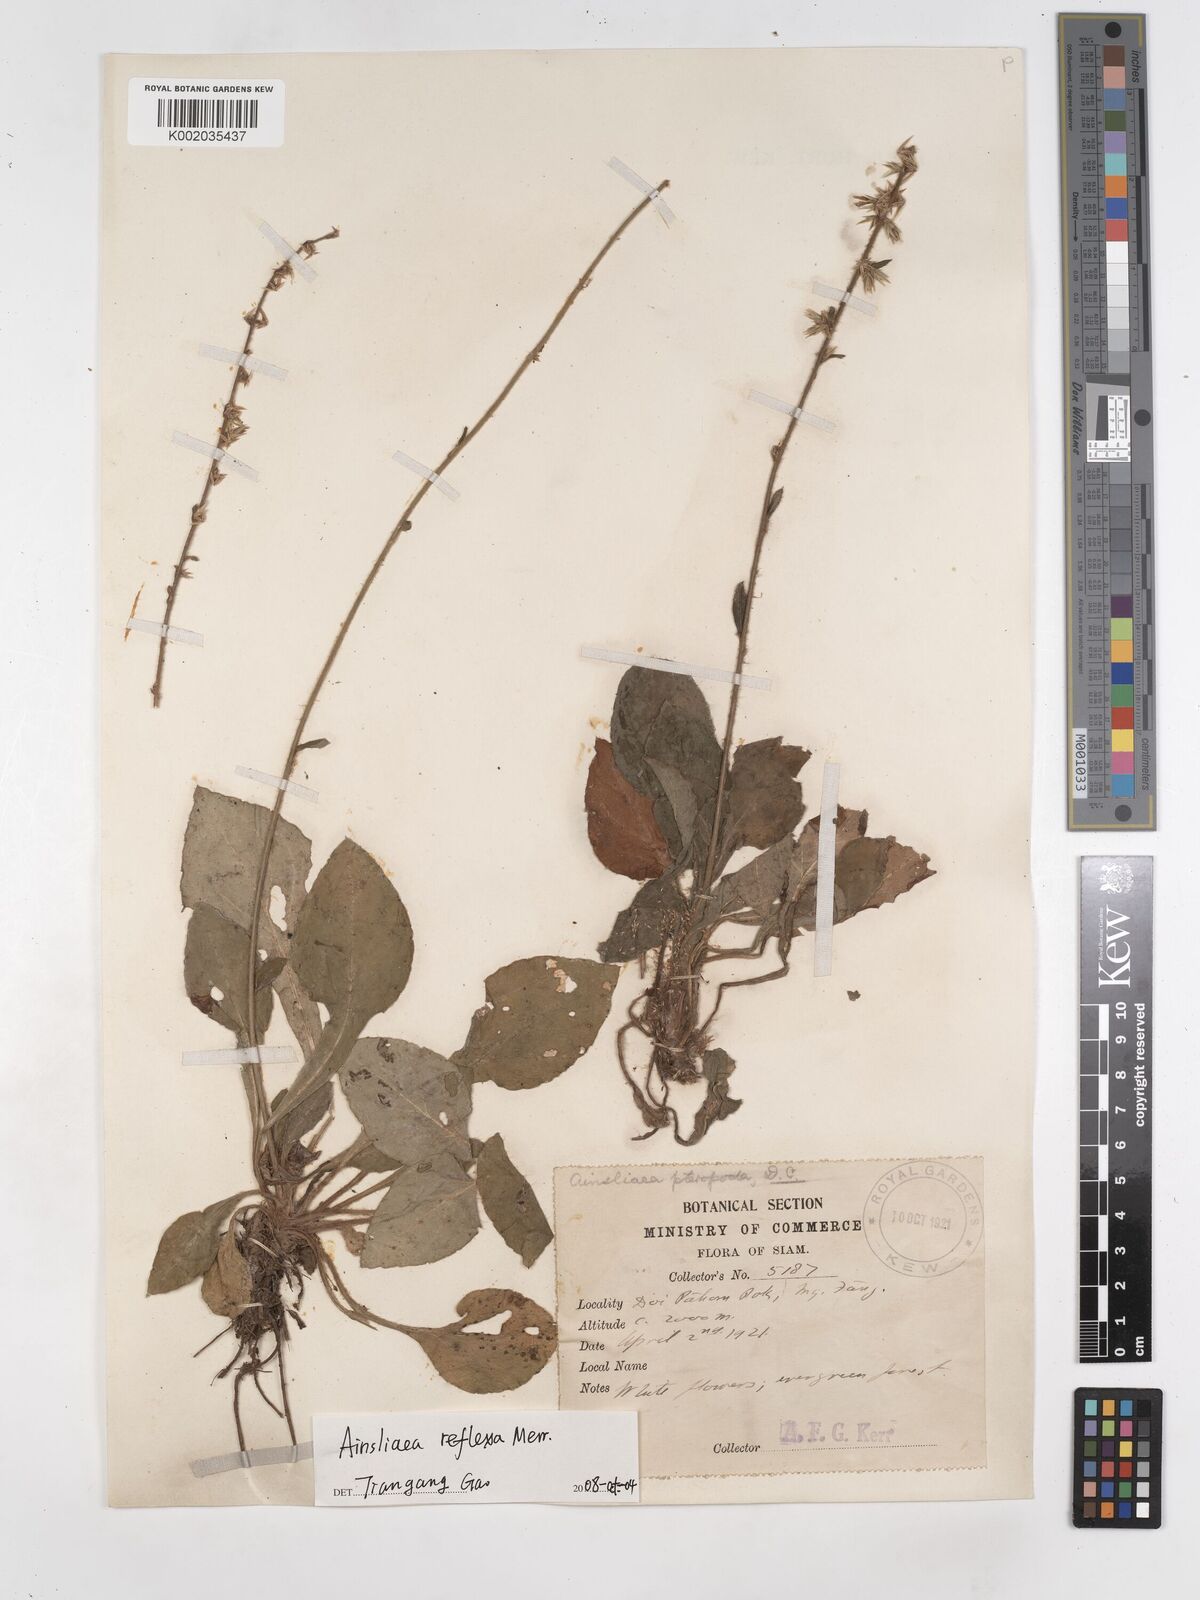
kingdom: Plantae
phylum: Tracheophyta
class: Magnoliopsida
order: Asterales
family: Asteraceae
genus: Ainsliaea
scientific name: Ainsliaea reflexa
